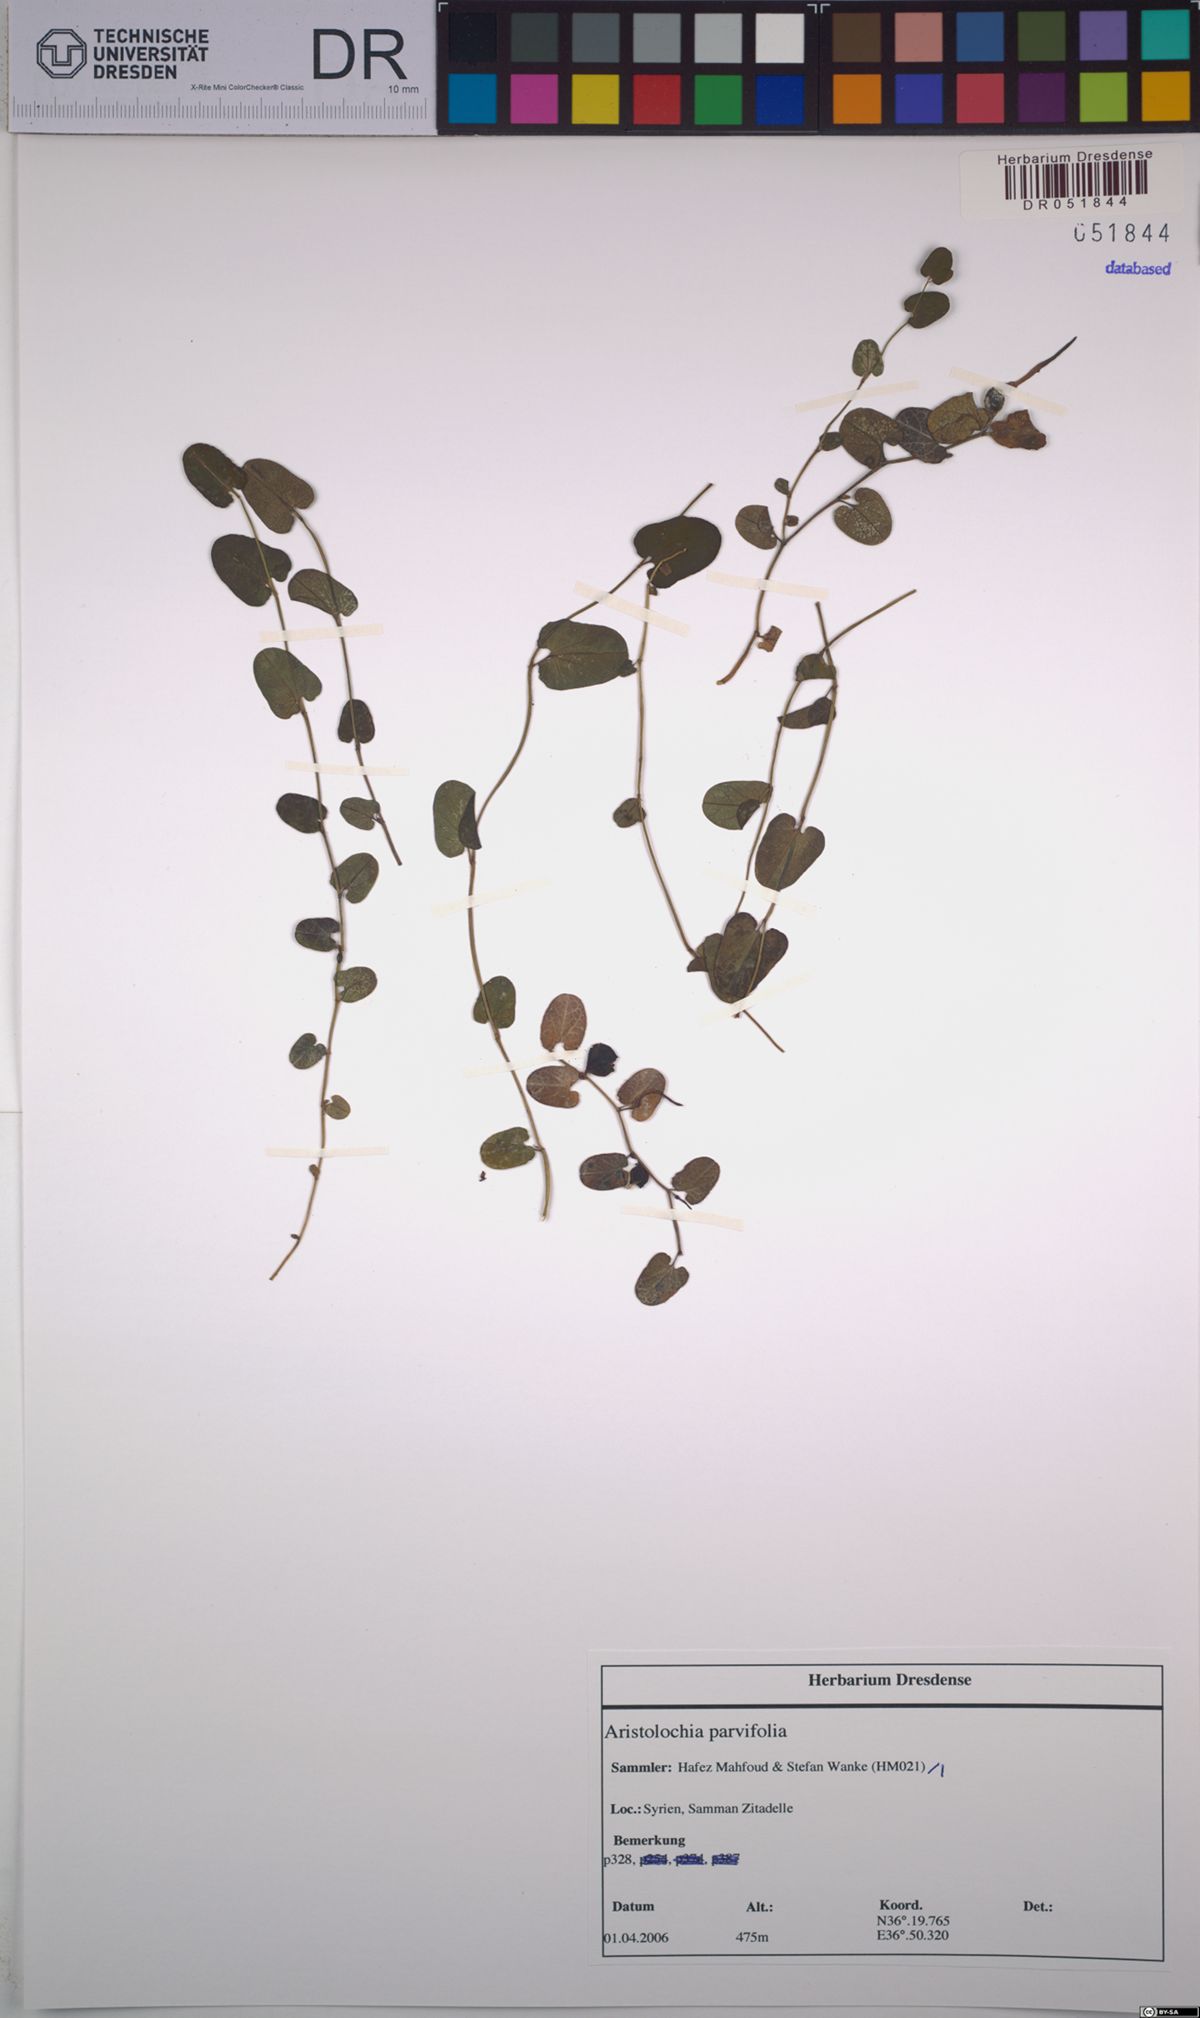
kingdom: Plantae
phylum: Tracheophyta
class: Magnoliopsida
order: Piperales
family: Aristolochiaceae
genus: Aristolochia
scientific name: Aristolochia parvifolia
